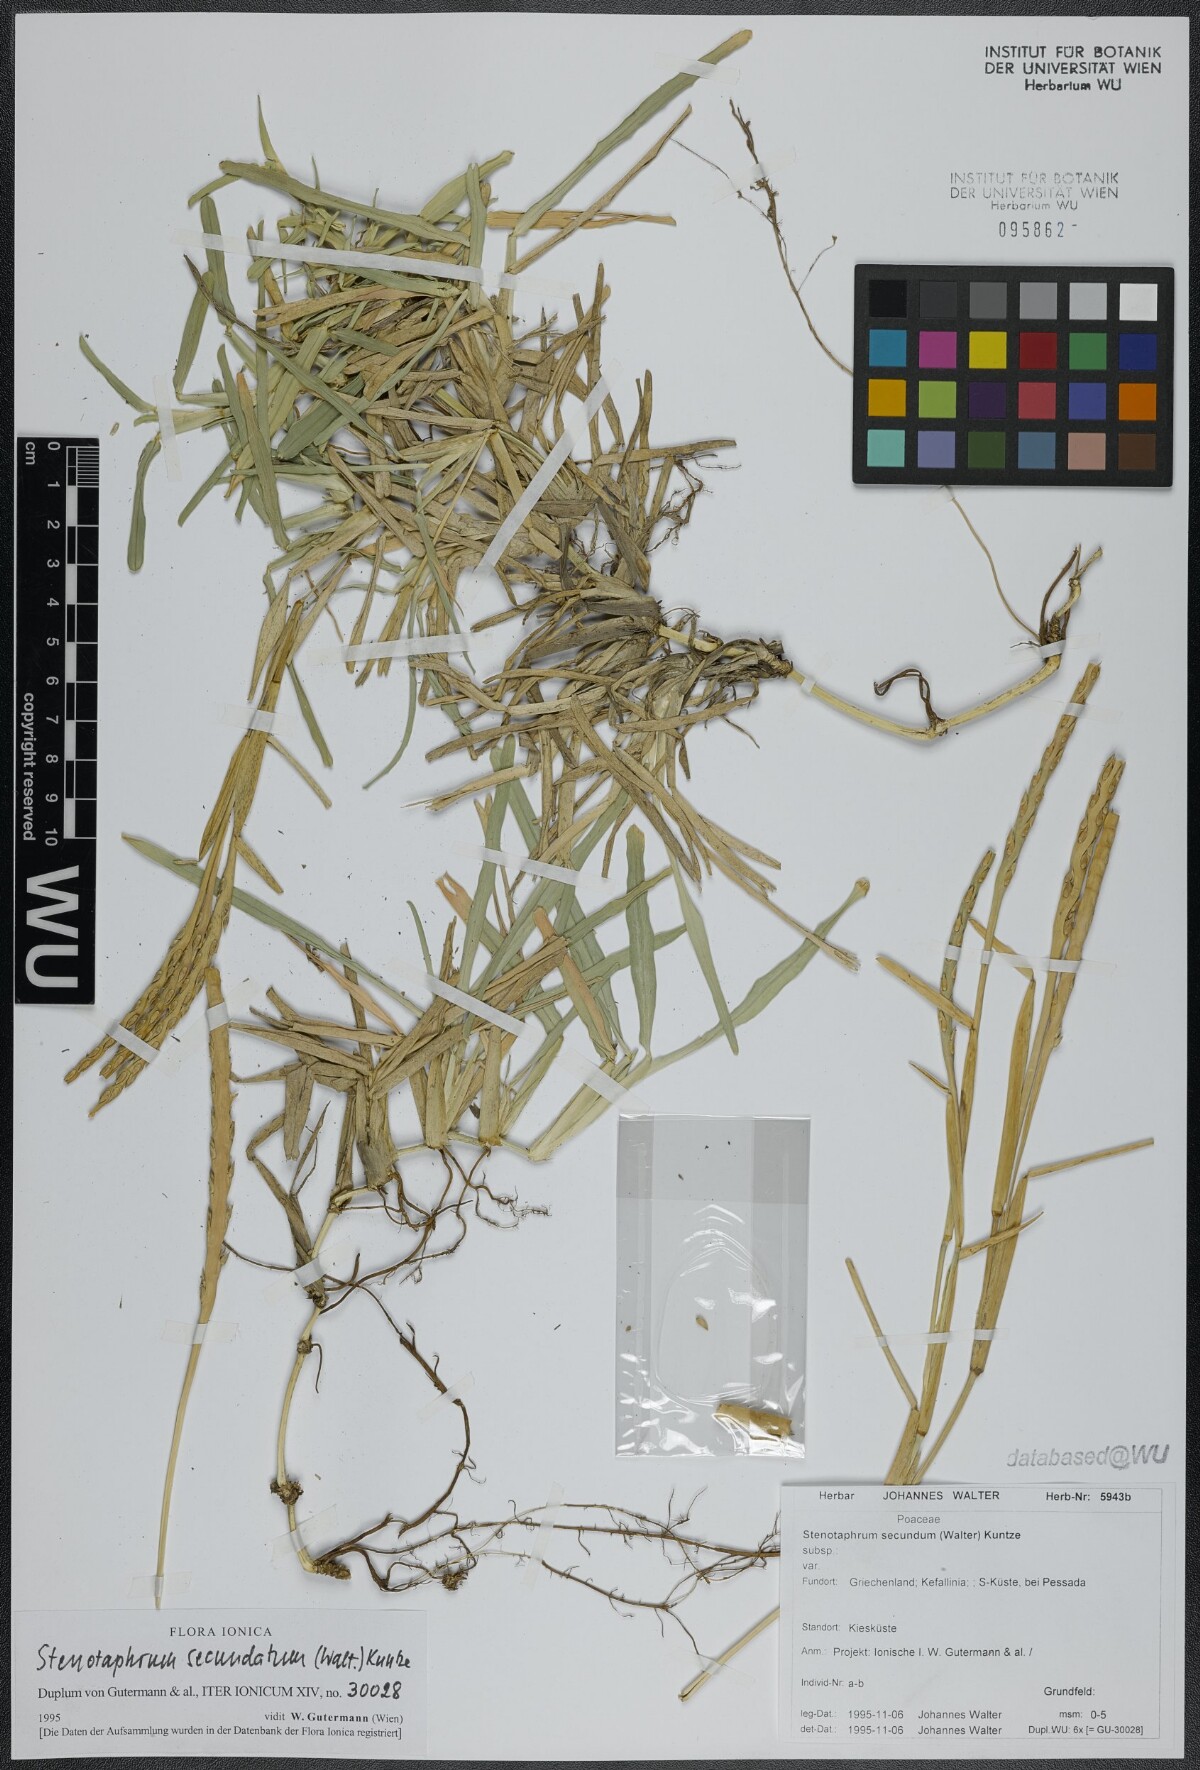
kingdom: Plantae
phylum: Tracheophyta
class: Liliopsida
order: Poales
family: Poaceae
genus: Stenotaphrum
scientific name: Stenotaphrum secundatum
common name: St. augustine grass
